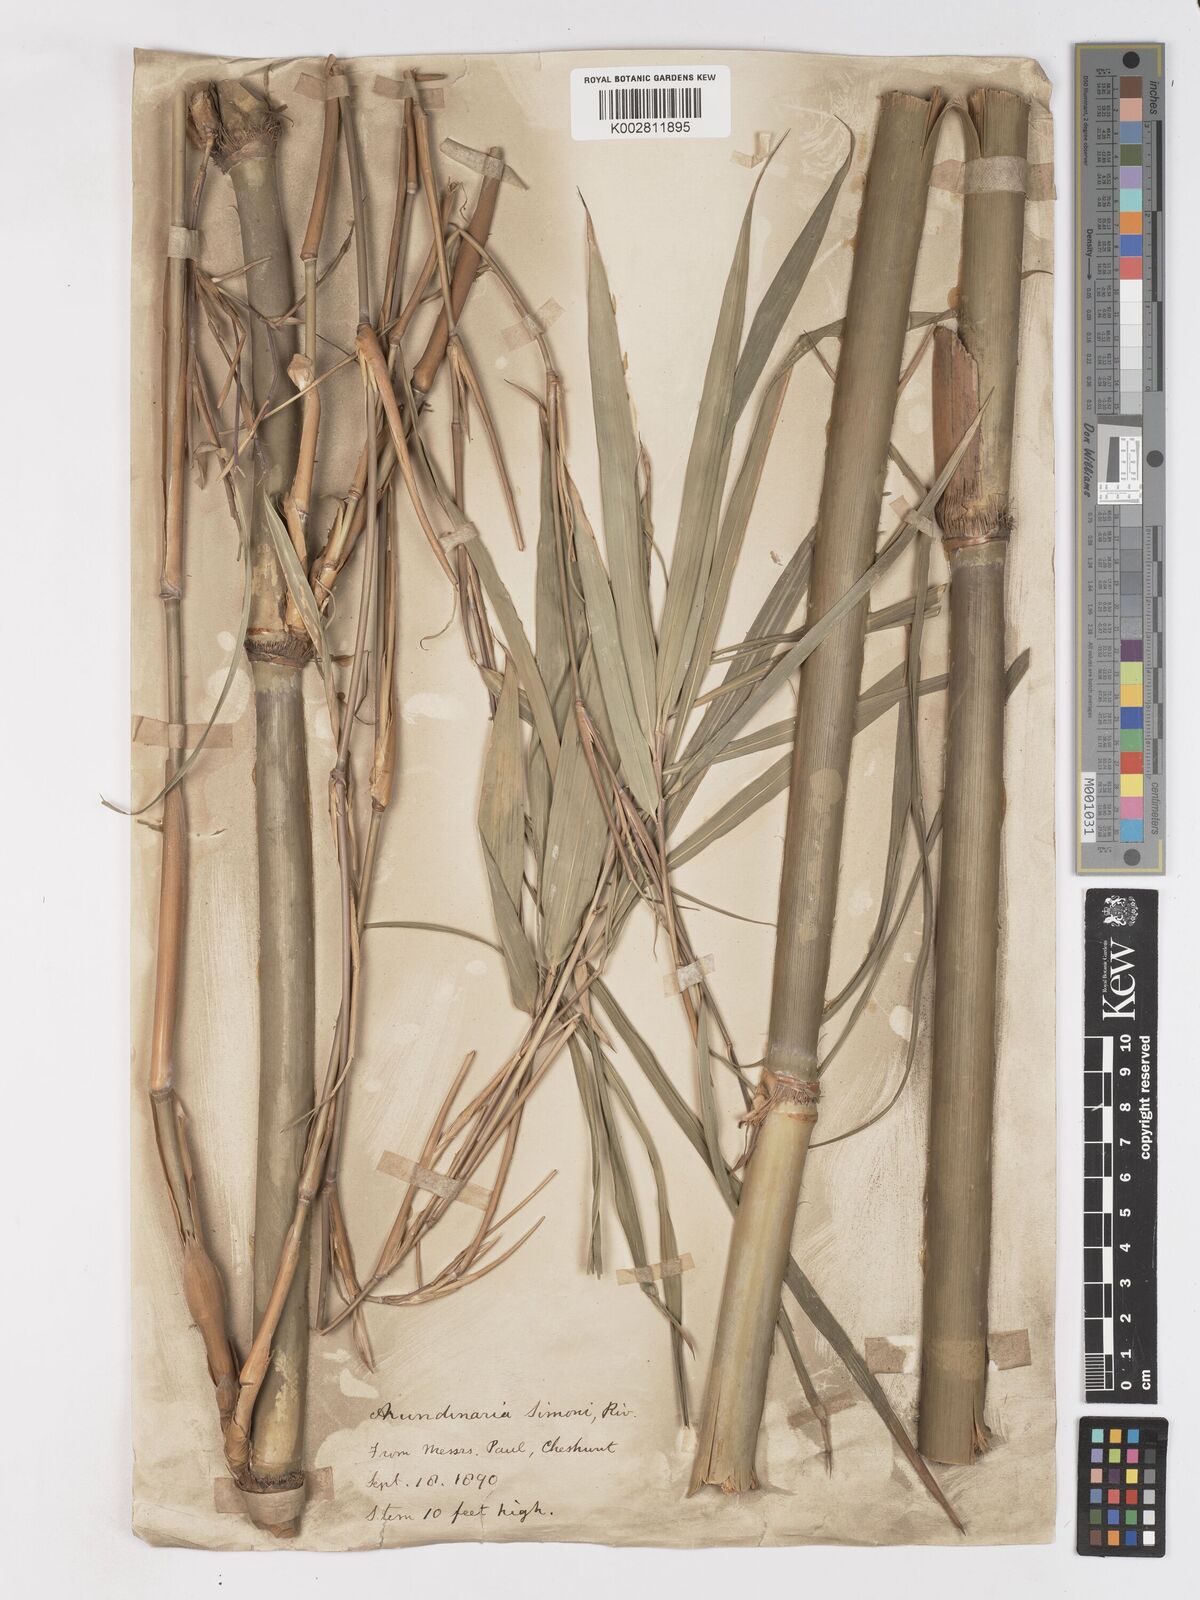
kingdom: Plantae
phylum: Tracheophyta
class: Liliopsida
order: Poales
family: Poaceae
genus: Pleioblastus
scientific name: Pleioblastus simonii
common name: Simon bamboo
